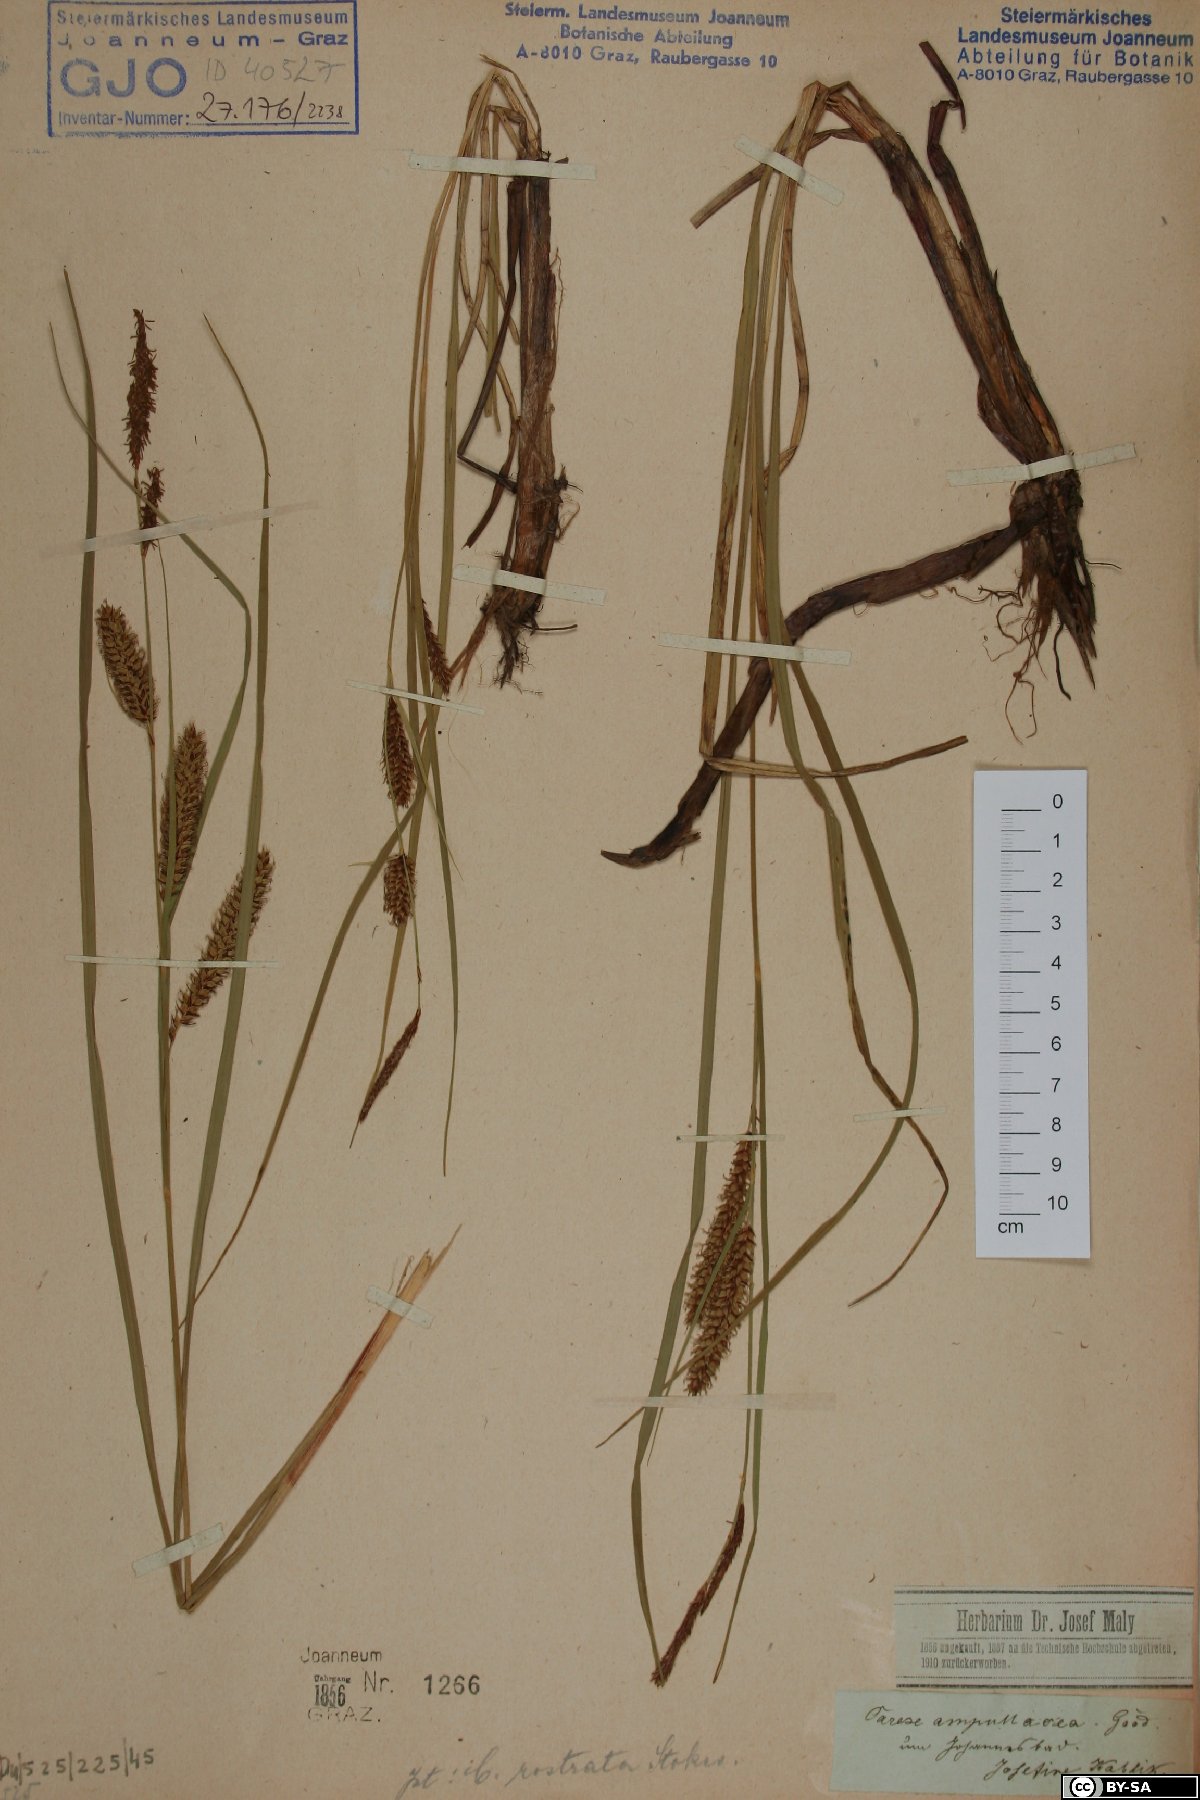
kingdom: Plantae
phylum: Tracheophyta
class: Liliopsida
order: Poales
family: Cyperaceae
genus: Carex
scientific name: Carex rostrata
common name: Bottle sedge
